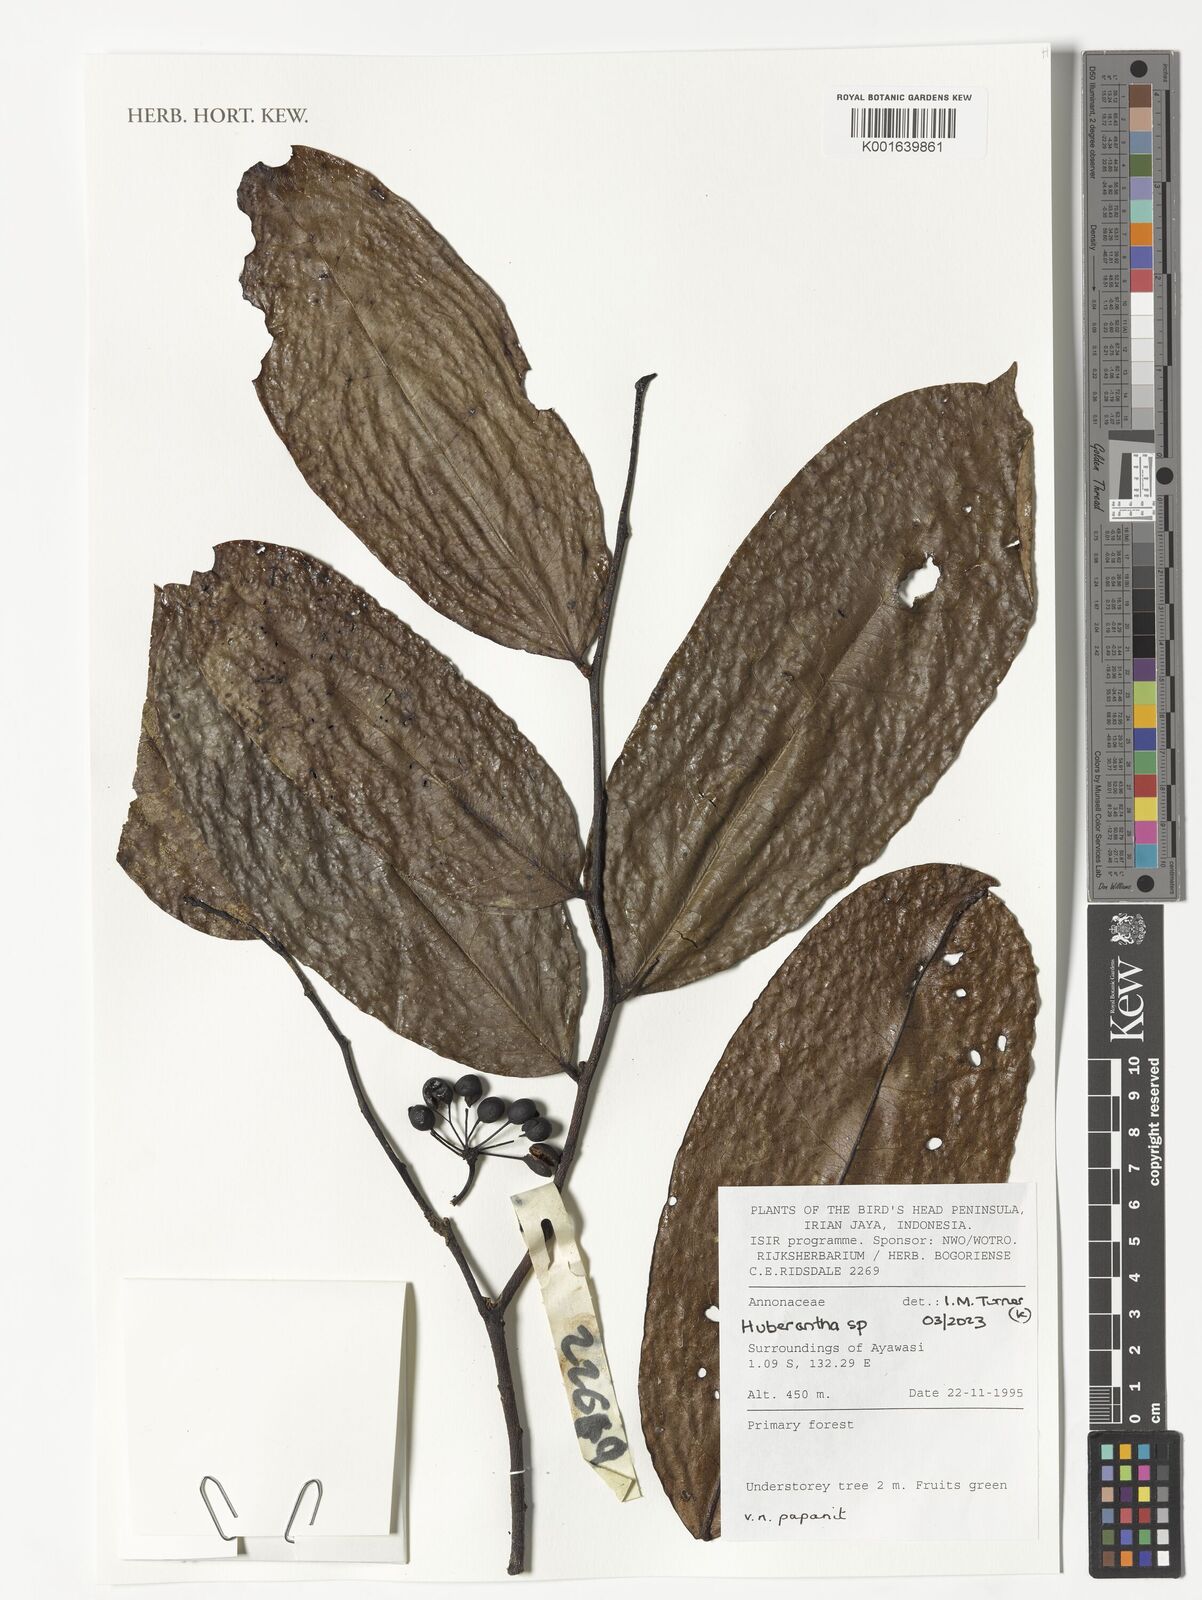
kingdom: Plantae
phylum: Tracheophyta
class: Magnoliopsida
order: Magnoliales
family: Annonaceae
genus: Huberantha
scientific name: Huberantha
